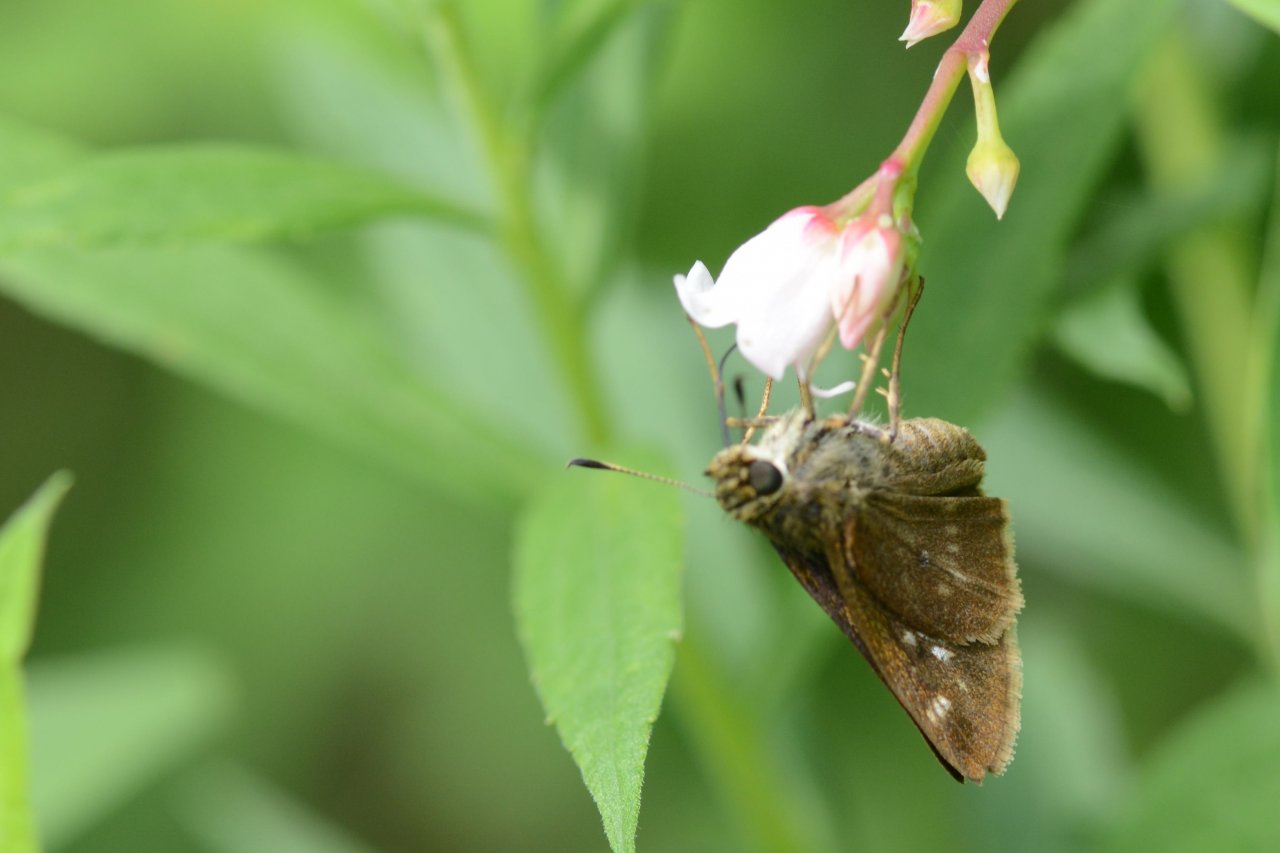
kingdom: Animalia
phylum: Arthropoda
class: Insecta
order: Lepidoptera
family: Hesperiidae
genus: Polites
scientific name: Polites egeremet
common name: Northern Broken-Dash
